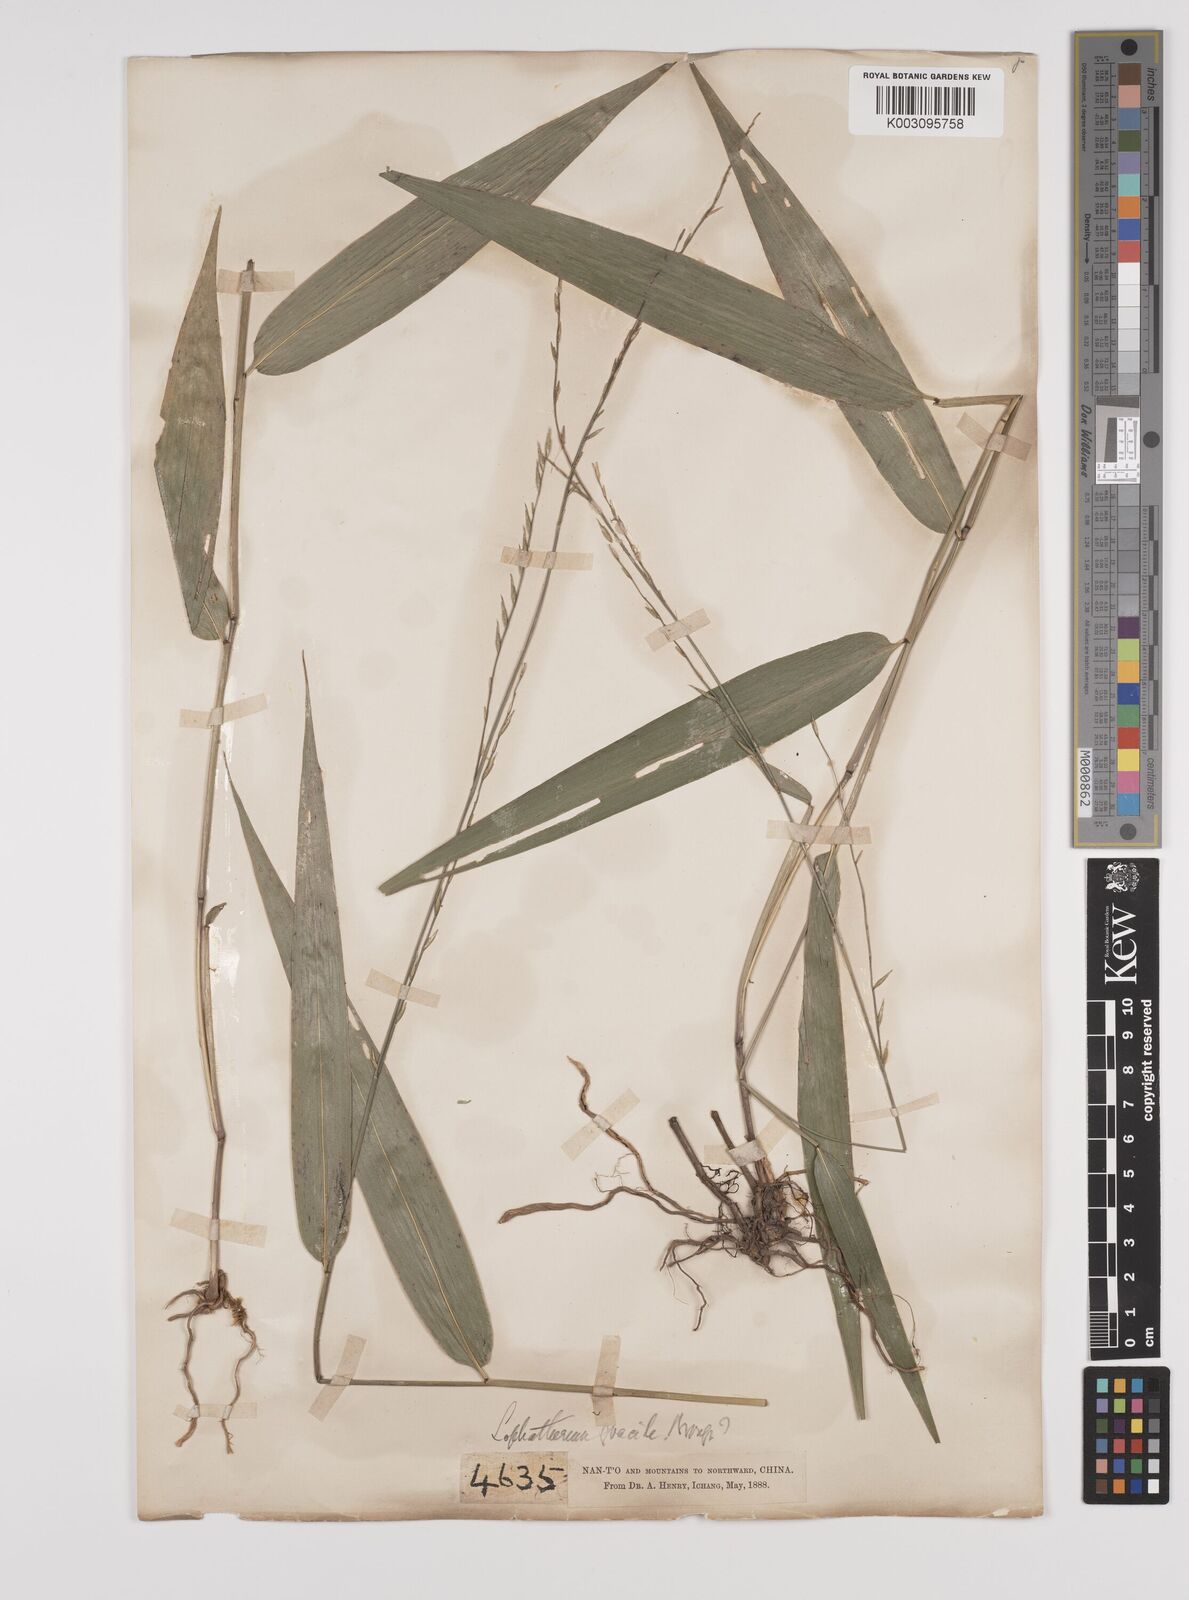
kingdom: Plantae
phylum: Tracheophyta
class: Liliopsida
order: Poales
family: Poaceae
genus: Lophatherum
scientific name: Lophatherum gracile
